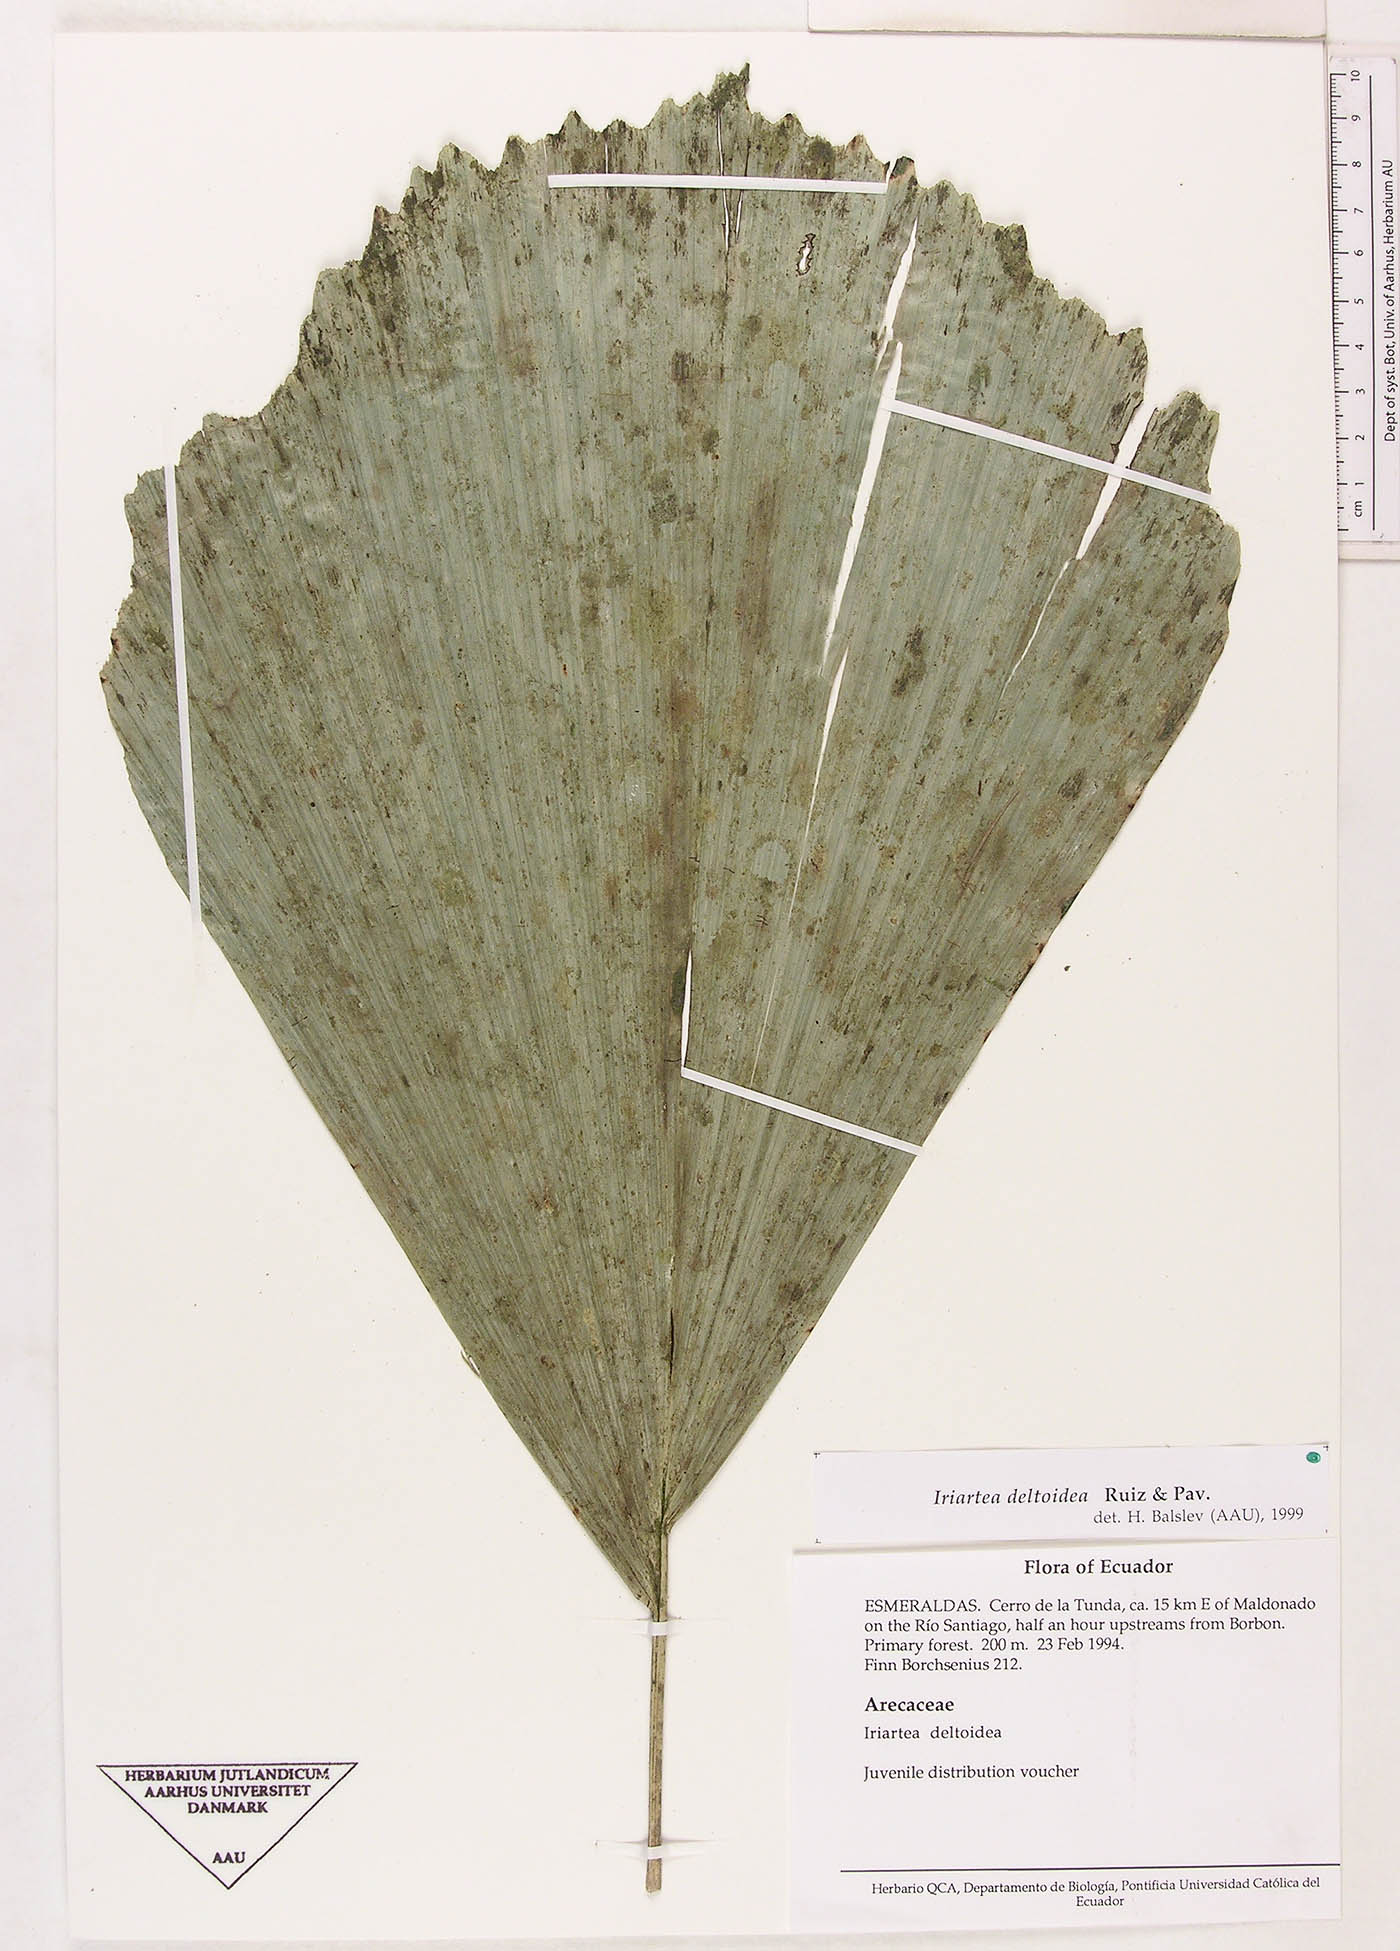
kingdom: Plantae
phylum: Tracheophyta
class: Liliopsida
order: Arecales
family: Arecaceae
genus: Iriartea
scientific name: Iriartea deltoidea
